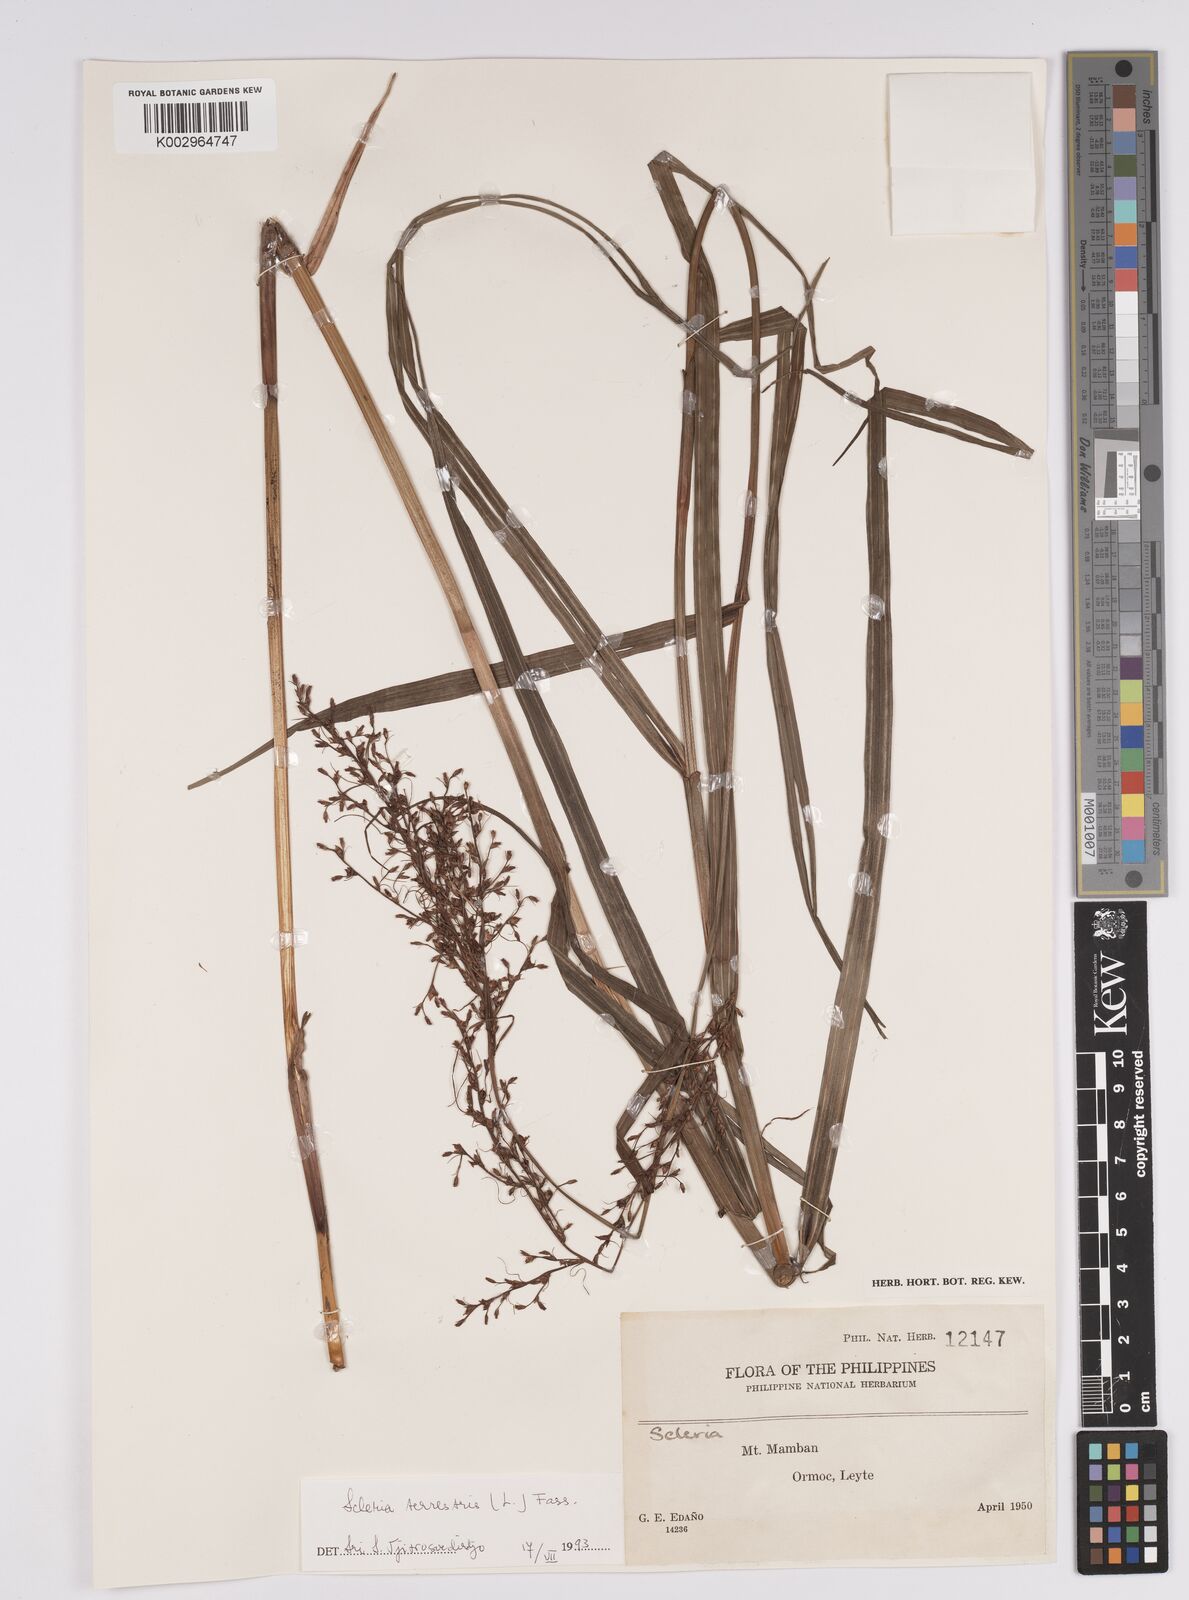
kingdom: Plantae
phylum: Tracheophyta
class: Liliopsida
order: Poales
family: Cyperaceae
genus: Scleria
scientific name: Scleria terrestris
